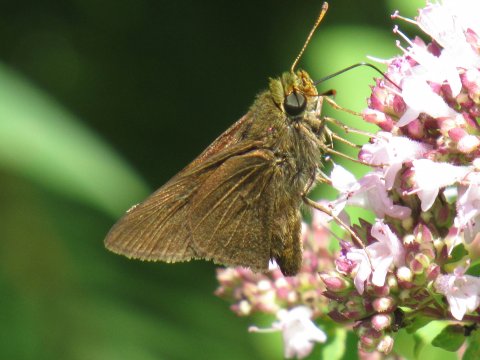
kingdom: Animalia
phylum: Arthropoda
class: Insecta
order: Lepidoptera
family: Hesperiidae
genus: Euphyes
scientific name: Euphyes vestris
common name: Dun Skipper
